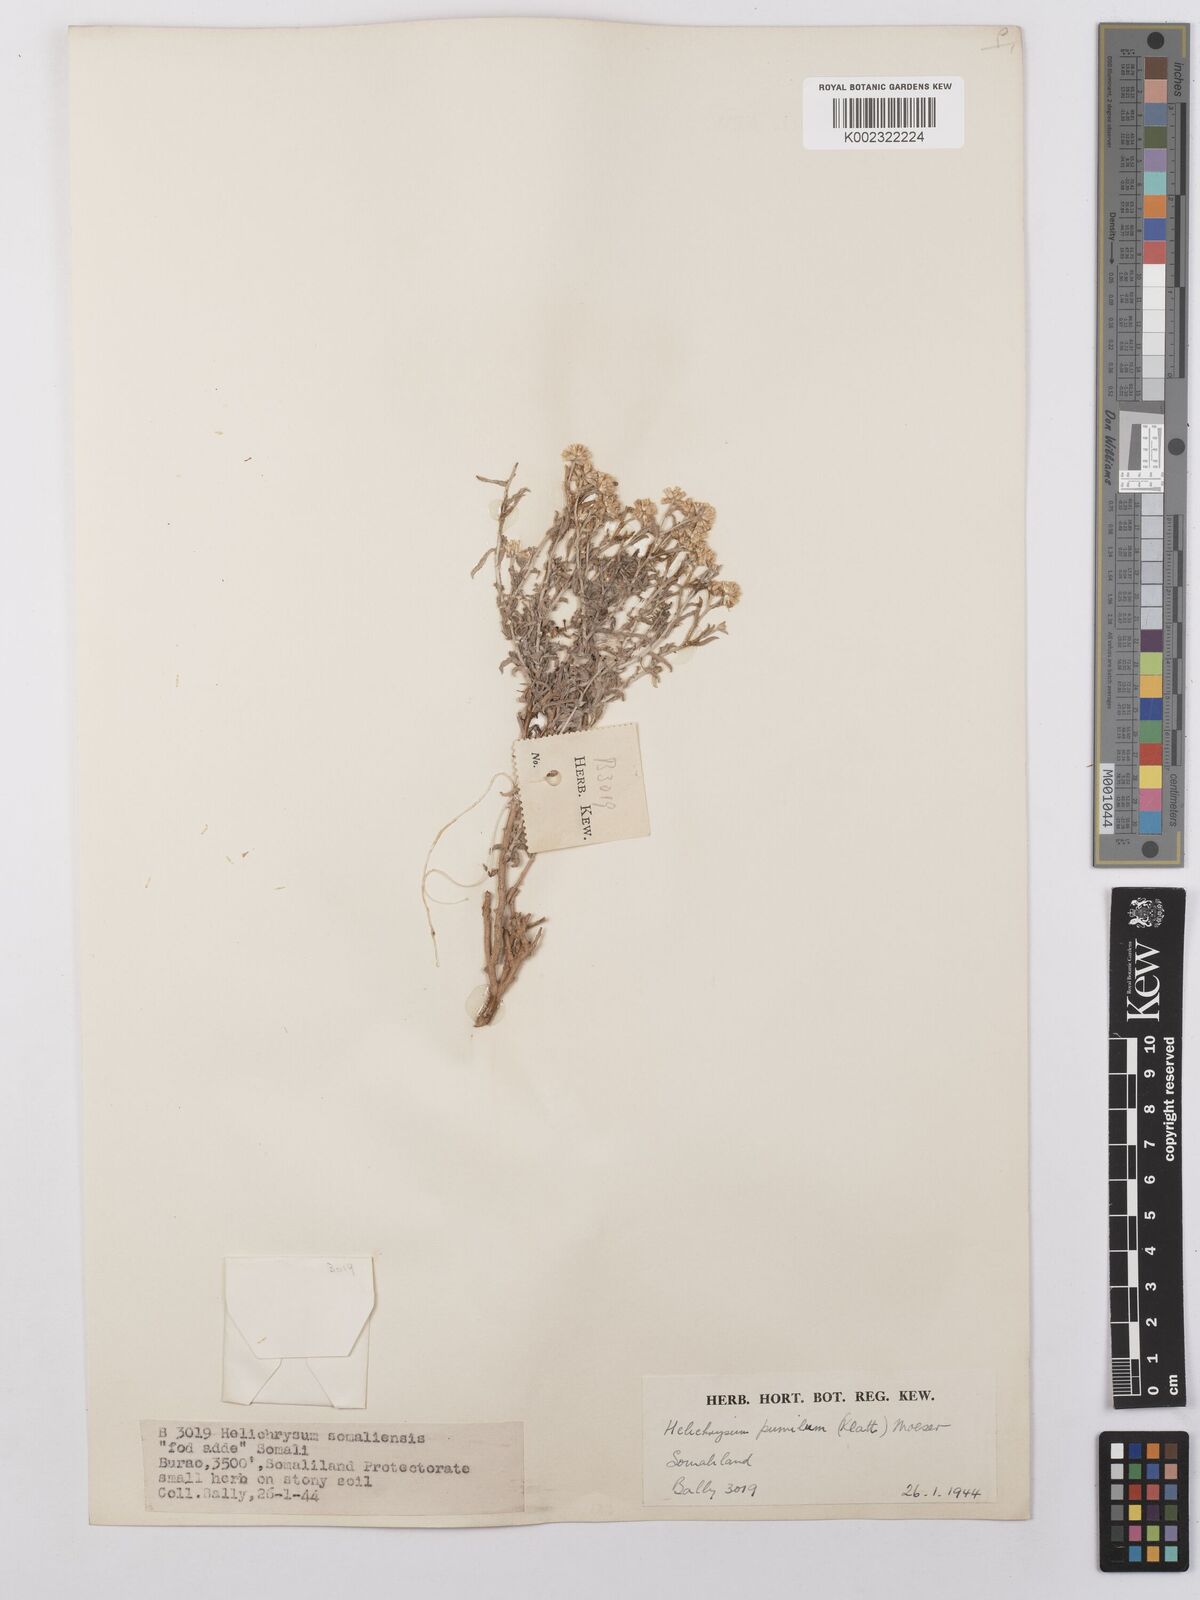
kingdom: Plantae
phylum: Tracheophyta
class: Magnoliopsida
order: Asterales
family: Asteraceae
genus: Helichrysum
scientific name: Helichrysum pumilum
